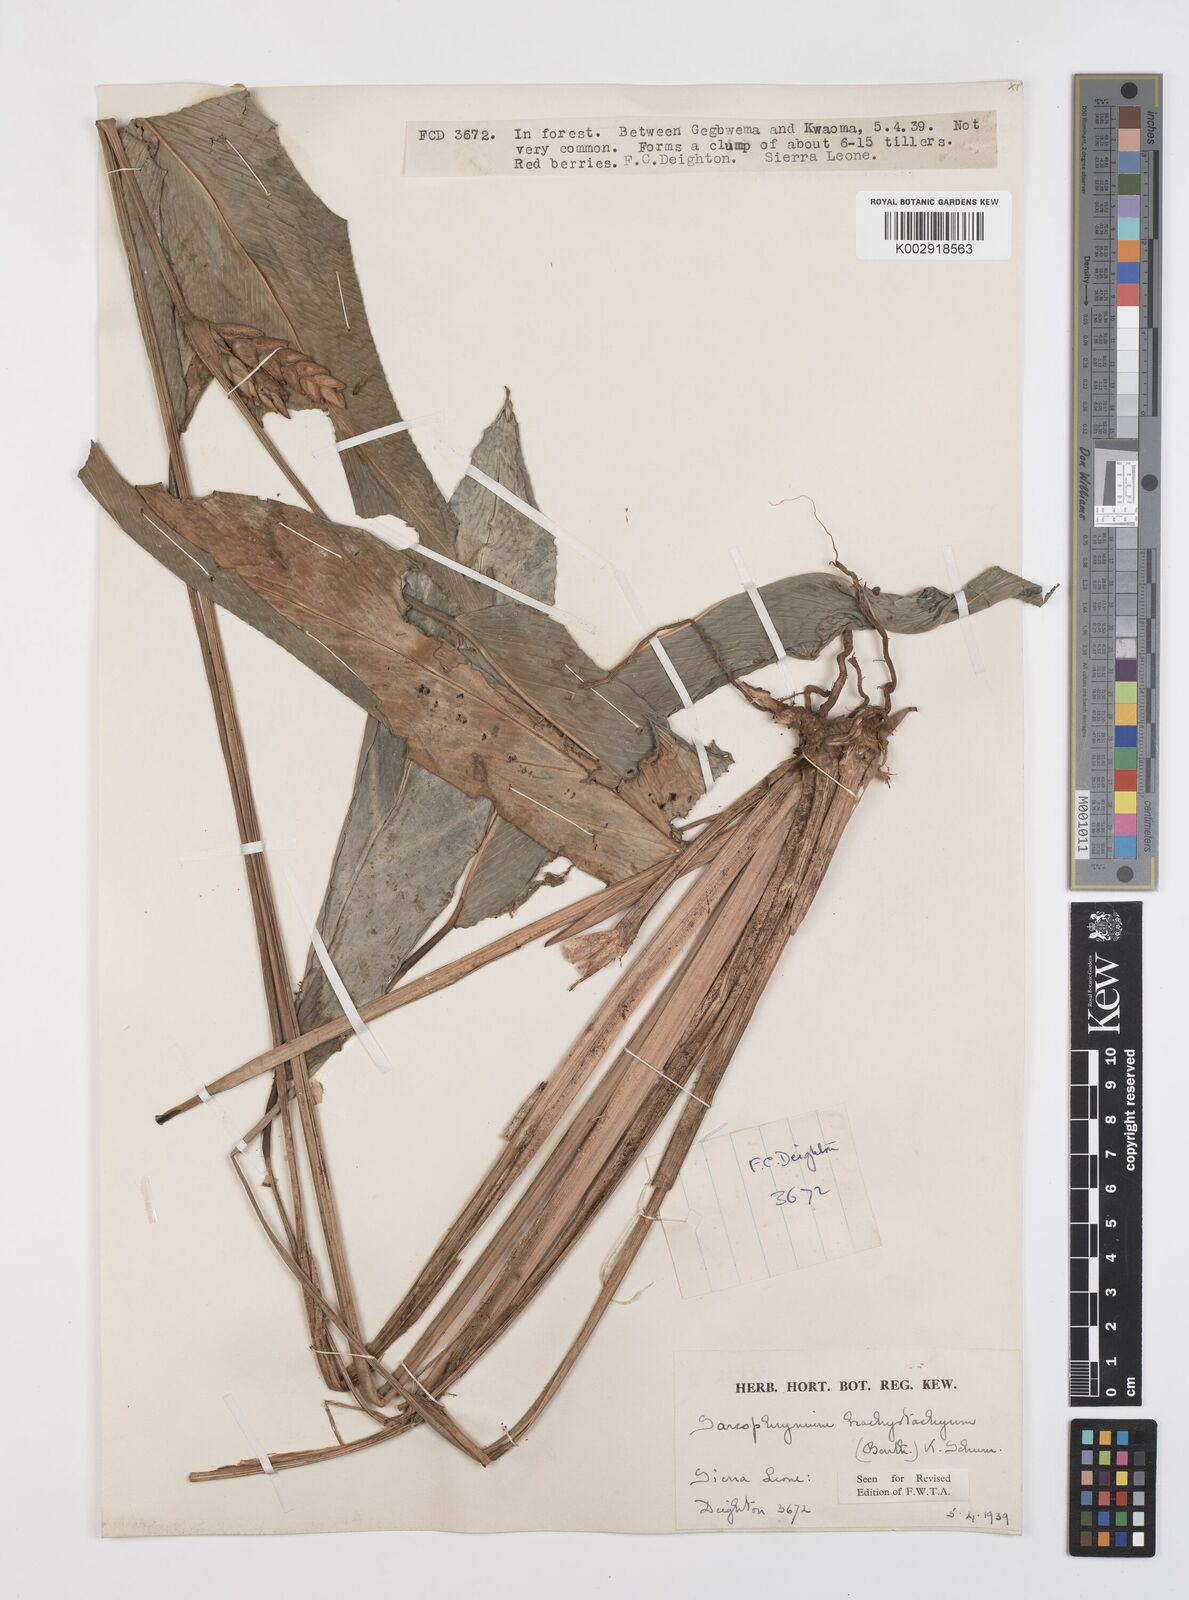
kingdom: Plantae
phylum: Tracheophyta
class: Liliopsida
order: Zingiberales
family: Marantaceae
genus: Sarcophrynium
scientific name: Sarcophrynium brachystachyum
